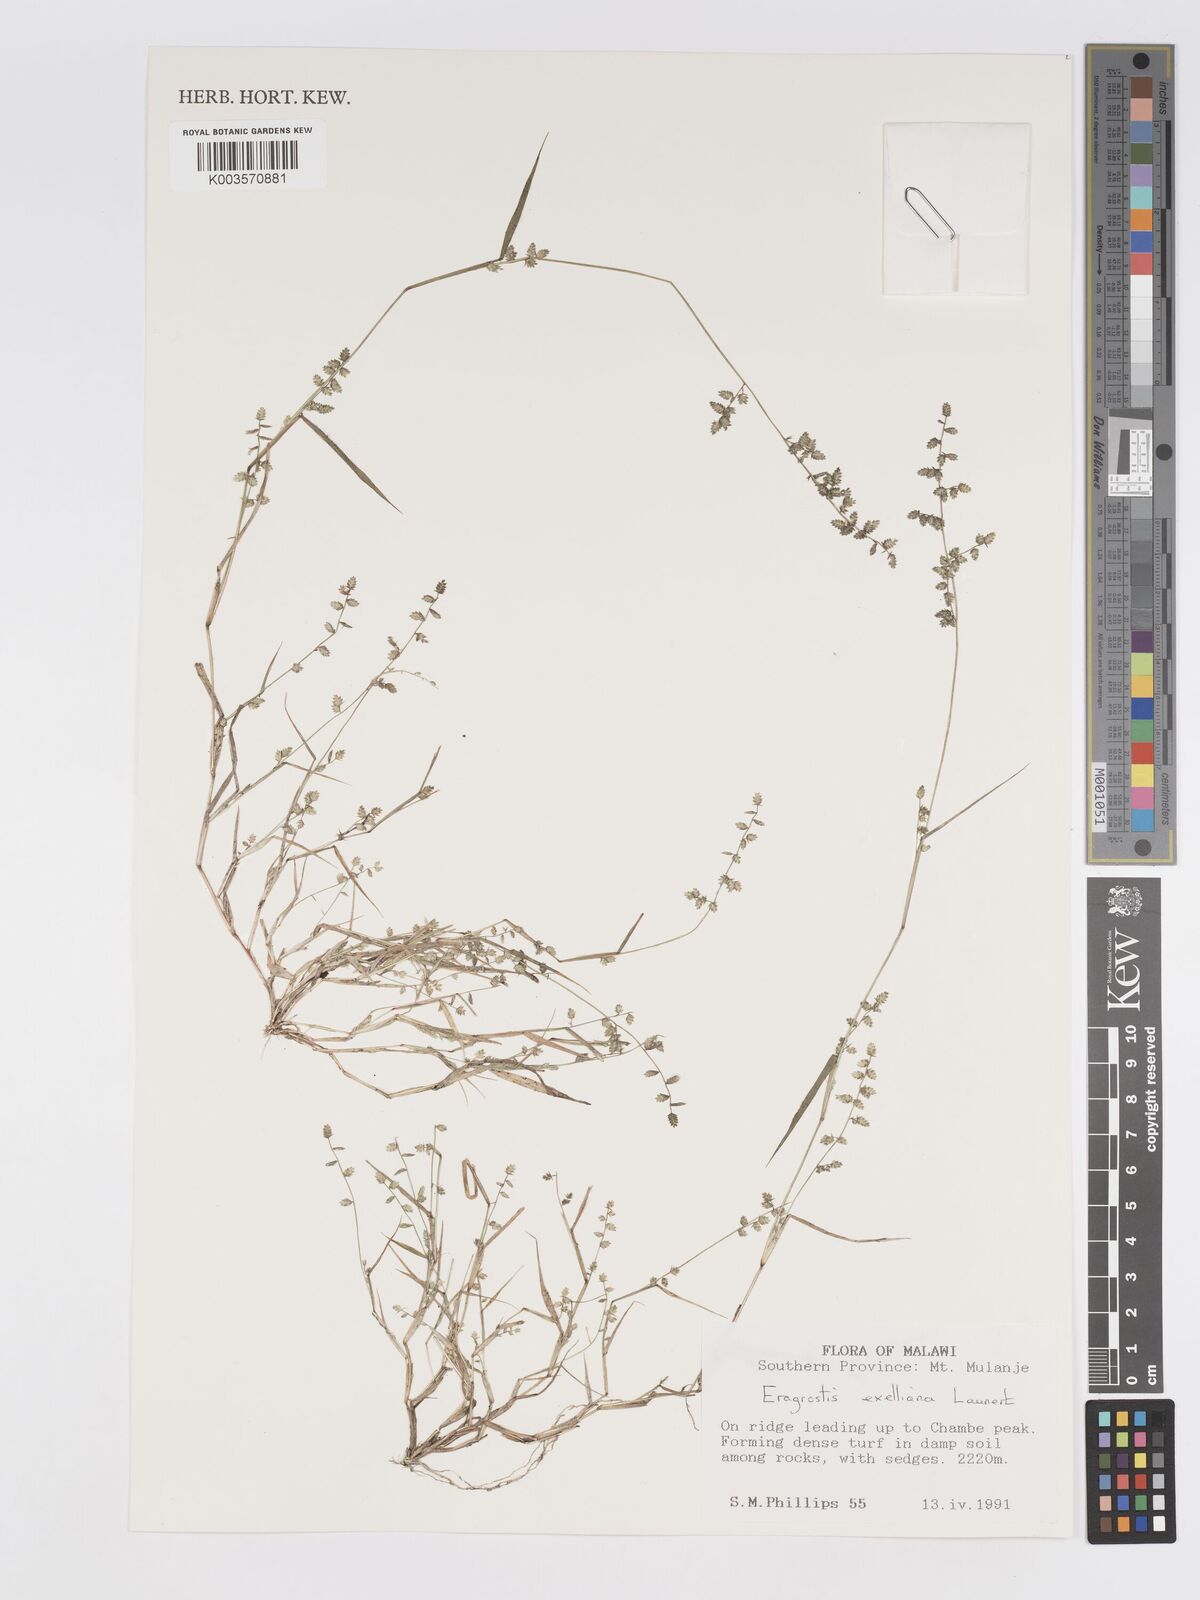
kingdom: Plantae
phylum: Tracheophyta
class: Liliopsida
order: Poales
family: Poaceae
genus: Eragrostis
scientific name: Eragrostis exelliana
